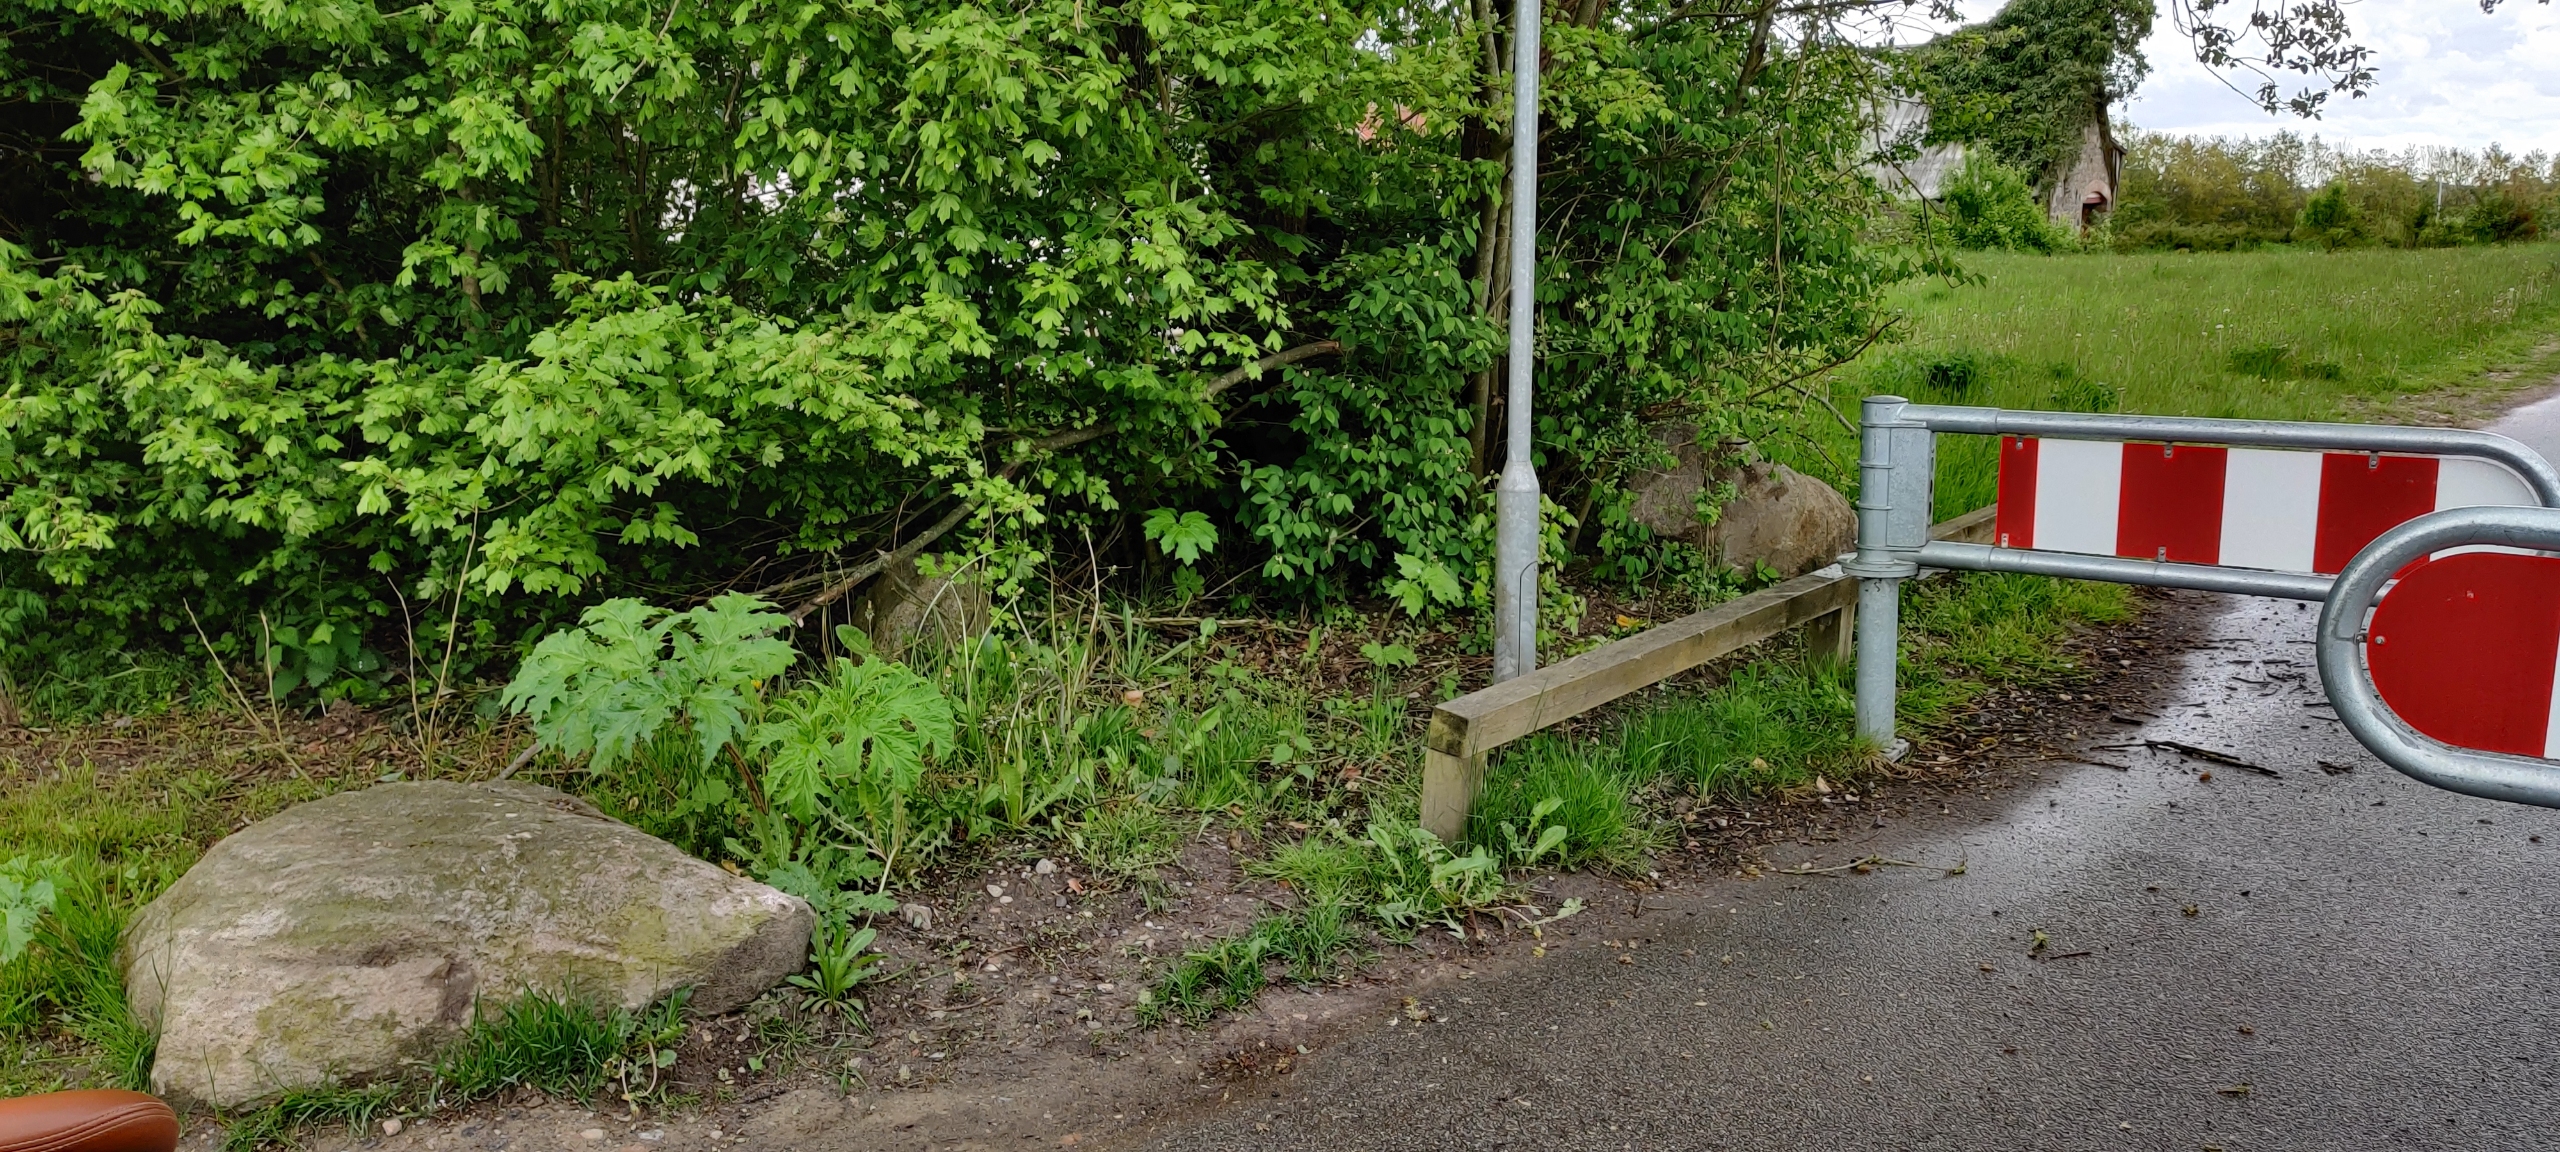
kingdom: Plantae
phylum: Tracheophyta
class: Magnoliopsida
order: Apiales
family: Apiaceae
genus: Heracleum
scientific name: Heracleum mantegazzianum
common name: Kæmpe-bjørneklo
